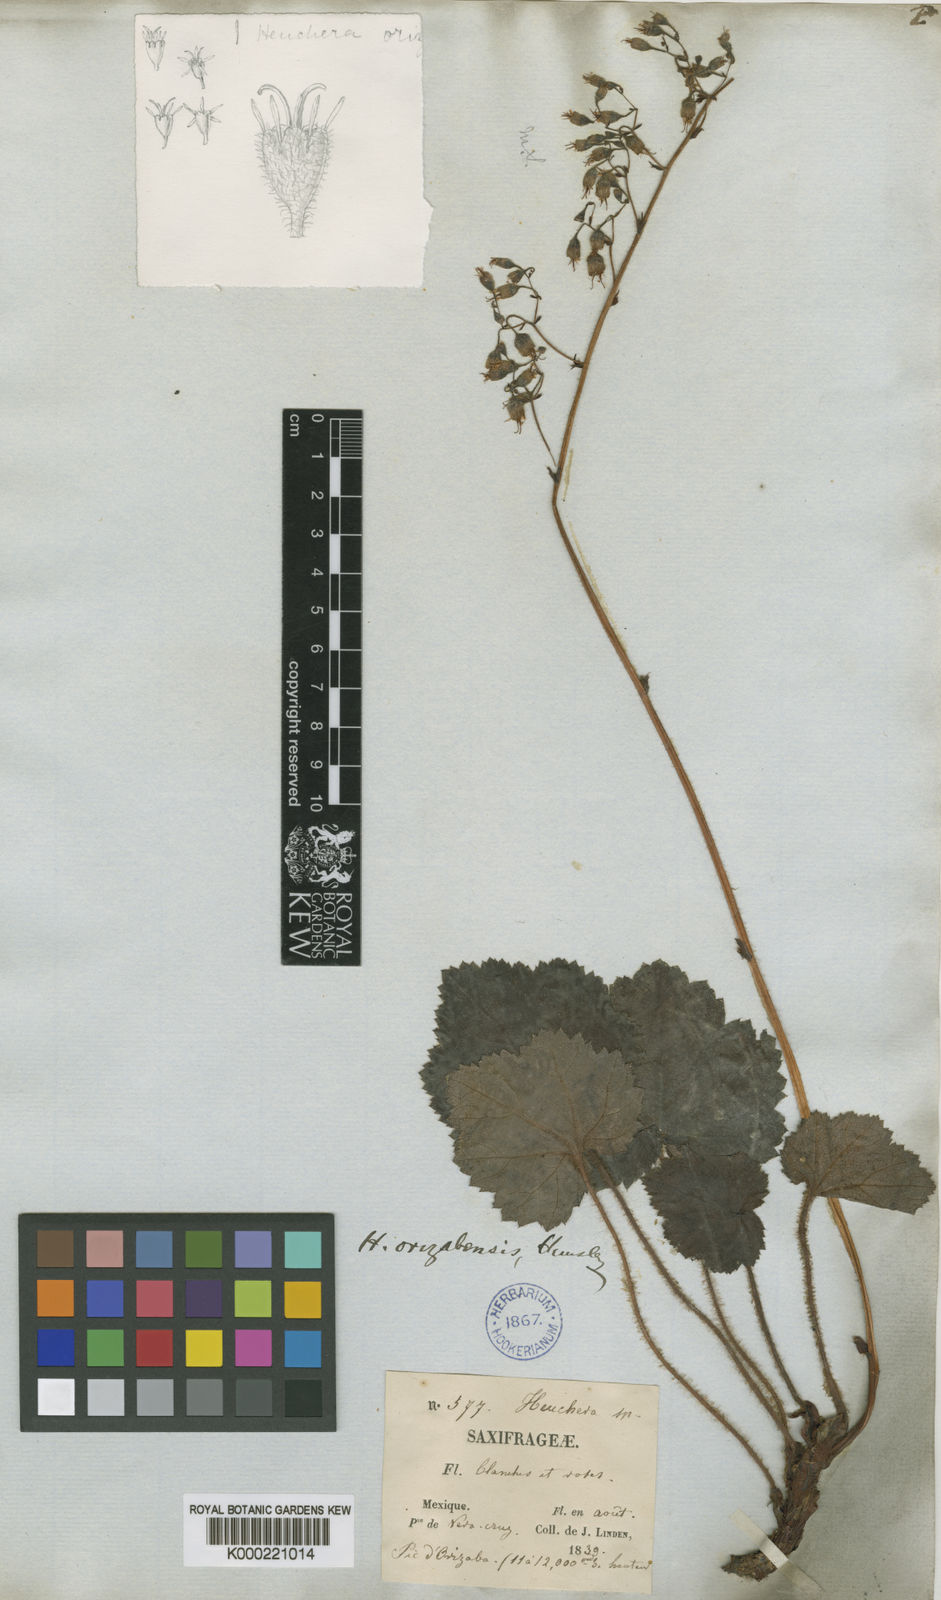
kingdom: Plantae
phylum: Tracheophyta
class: Magnoliopsida
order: Saxifragales
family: Saxifragaceae
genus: Heuchera
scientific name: Heuchera longipetala
